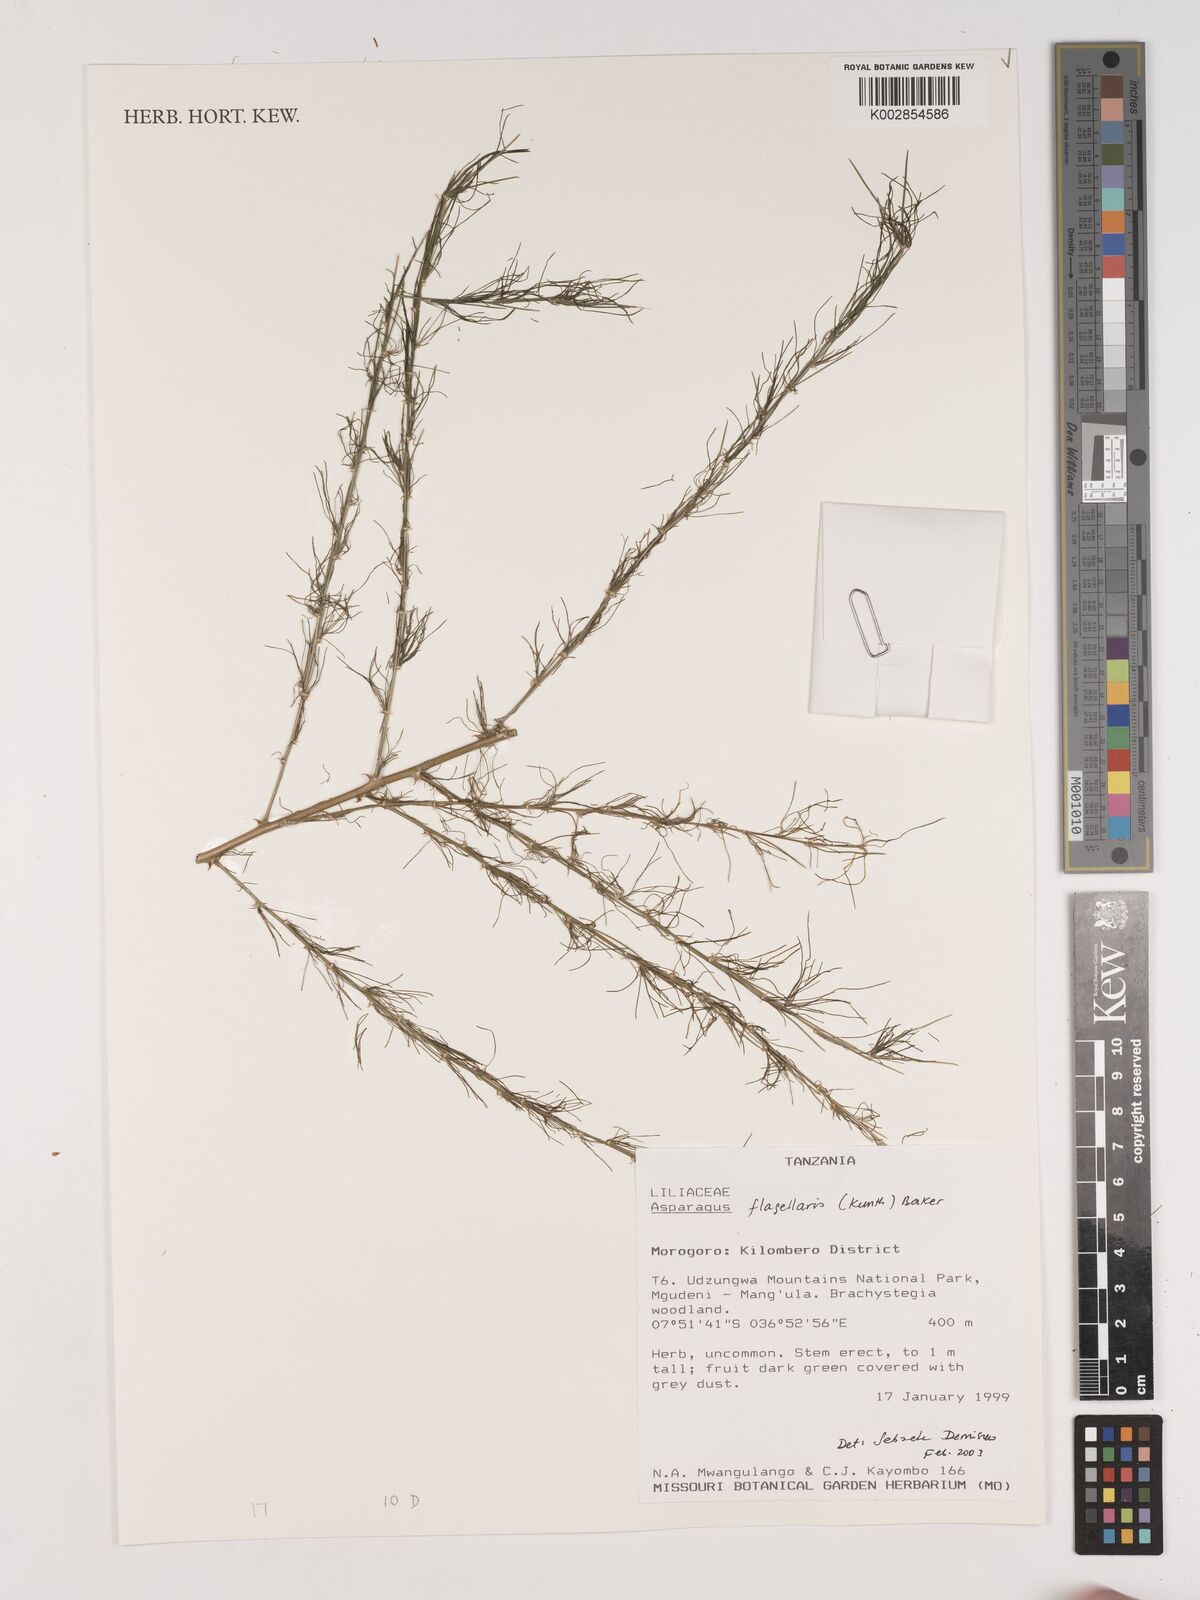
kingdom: Plantae
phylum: Tracheophyta
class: Liliopsida
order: Asparagales
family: Asparagaceae
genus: Asparagus
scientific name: Asparagus flagellaris
